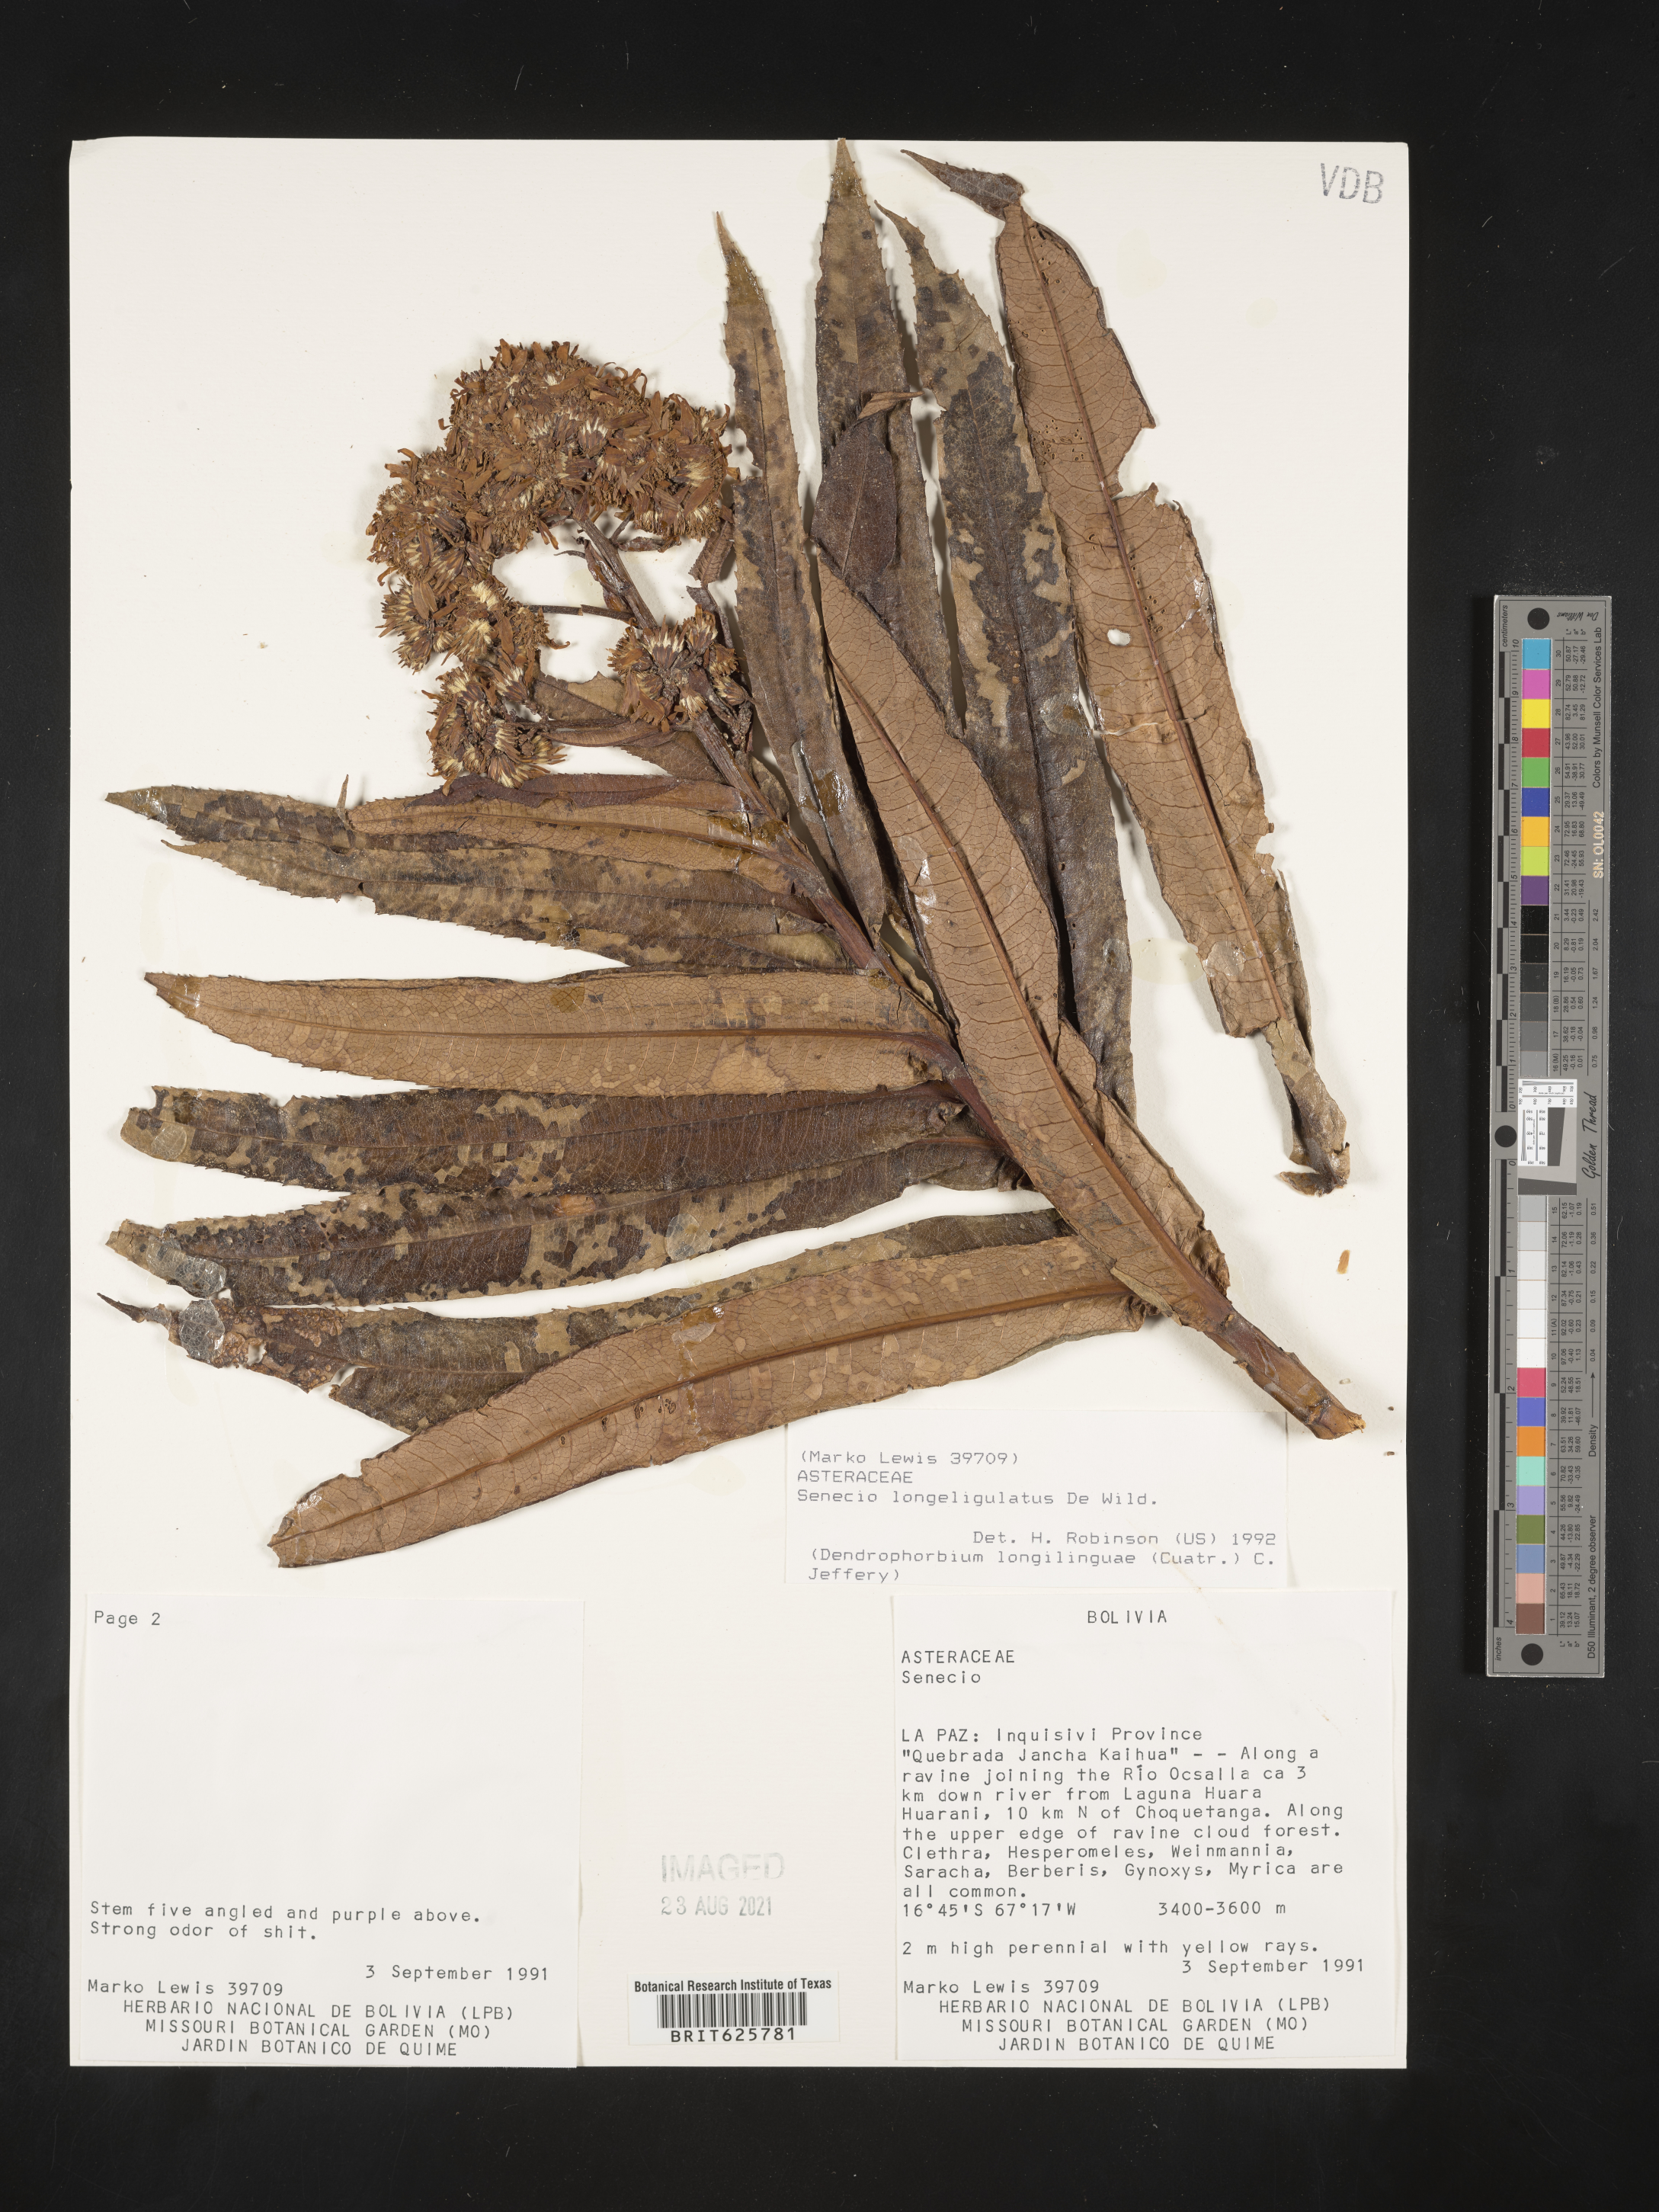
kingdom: Plantae
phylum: Tracheophyta
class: Magnoliopsida
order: Asterales
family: Asteraceae
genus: Dendrosenecio
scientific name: Dendrosenecio erici-rosenii
